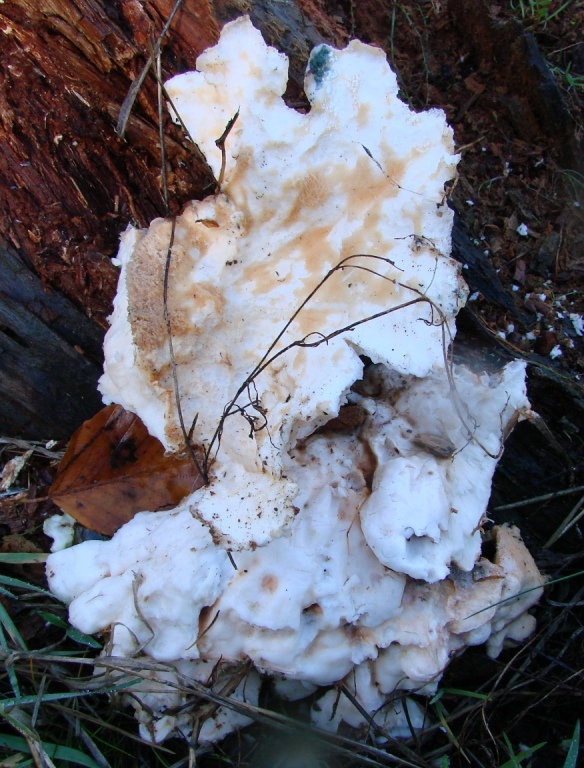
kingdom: Fungi
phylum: Basidiomycota
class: Agaricomycetes
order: Polyporales
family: Laetiporaceae
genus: Laetiporus
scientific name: Laetiporus sulphureus
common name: svovlporesvamp
